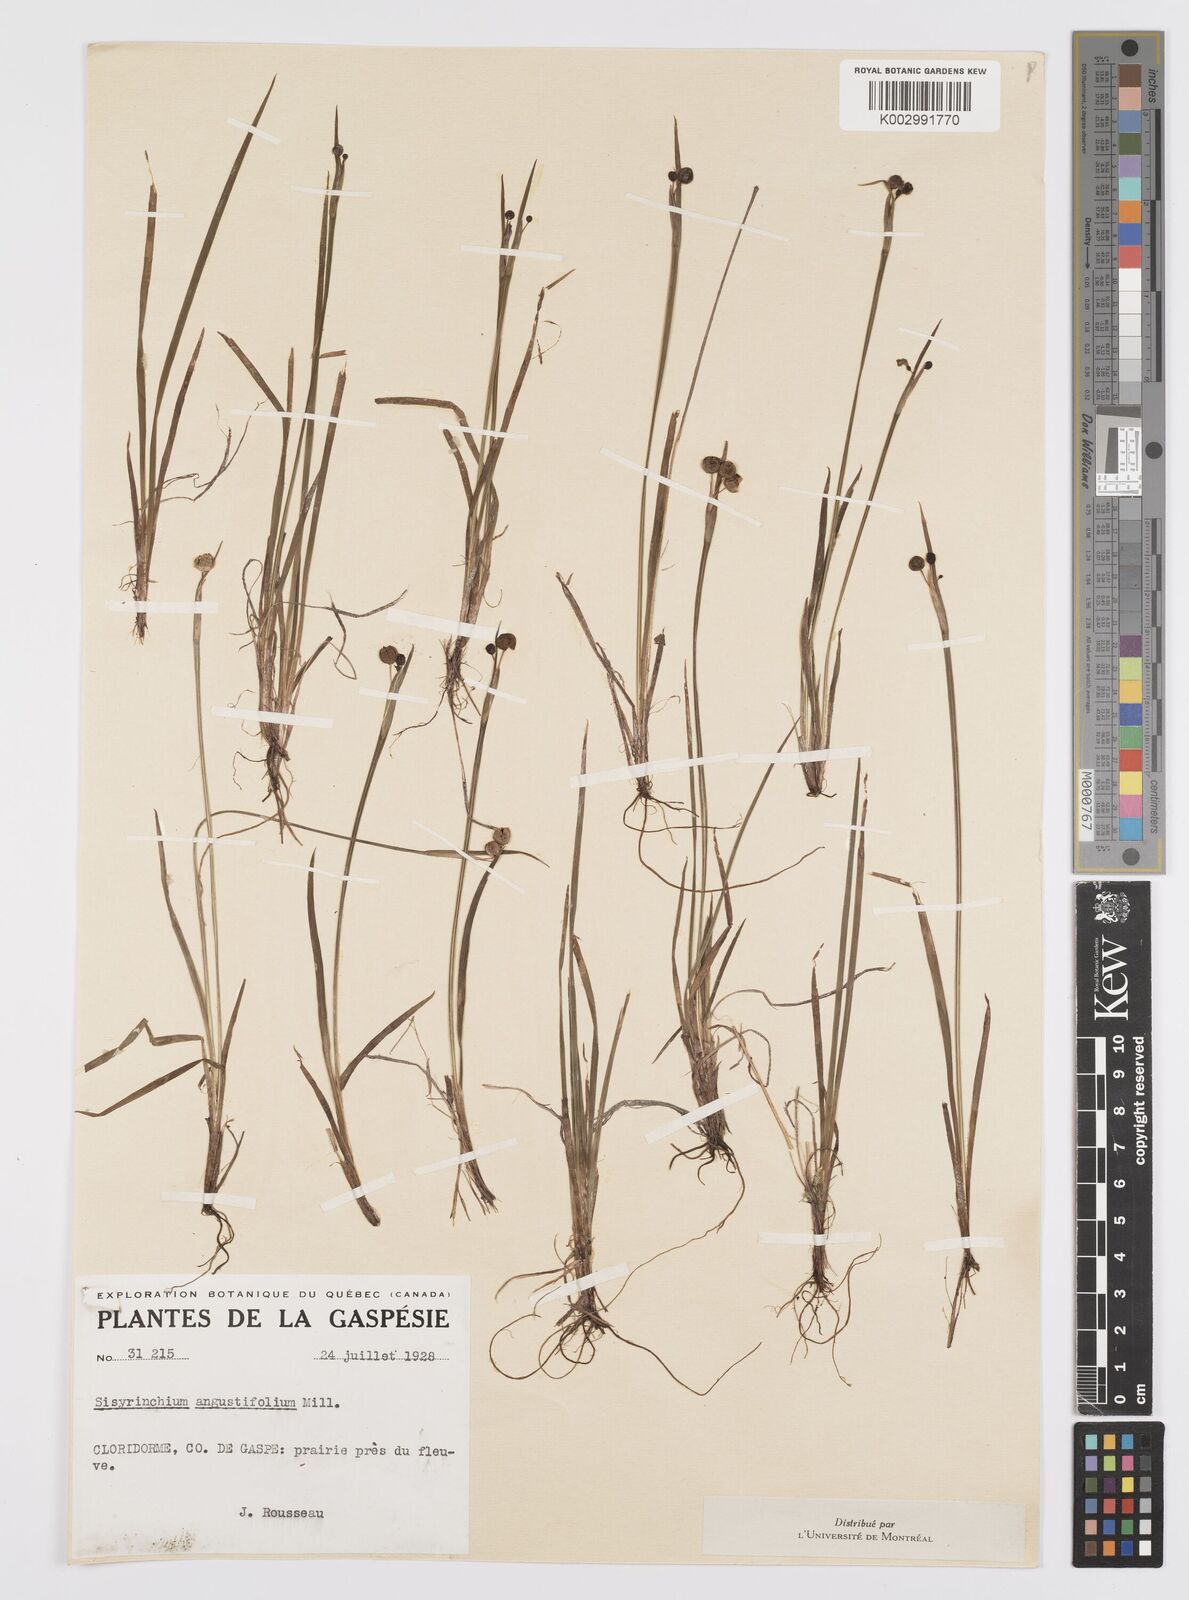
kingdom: Plantae
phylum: Tracheophyta
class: Liliopsida
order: Asparagales
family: Iridaceae
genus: Sisyrinchium
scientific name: Sisyrinchium angustifolium
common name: Narrow-leaf blue-eyed-grass
